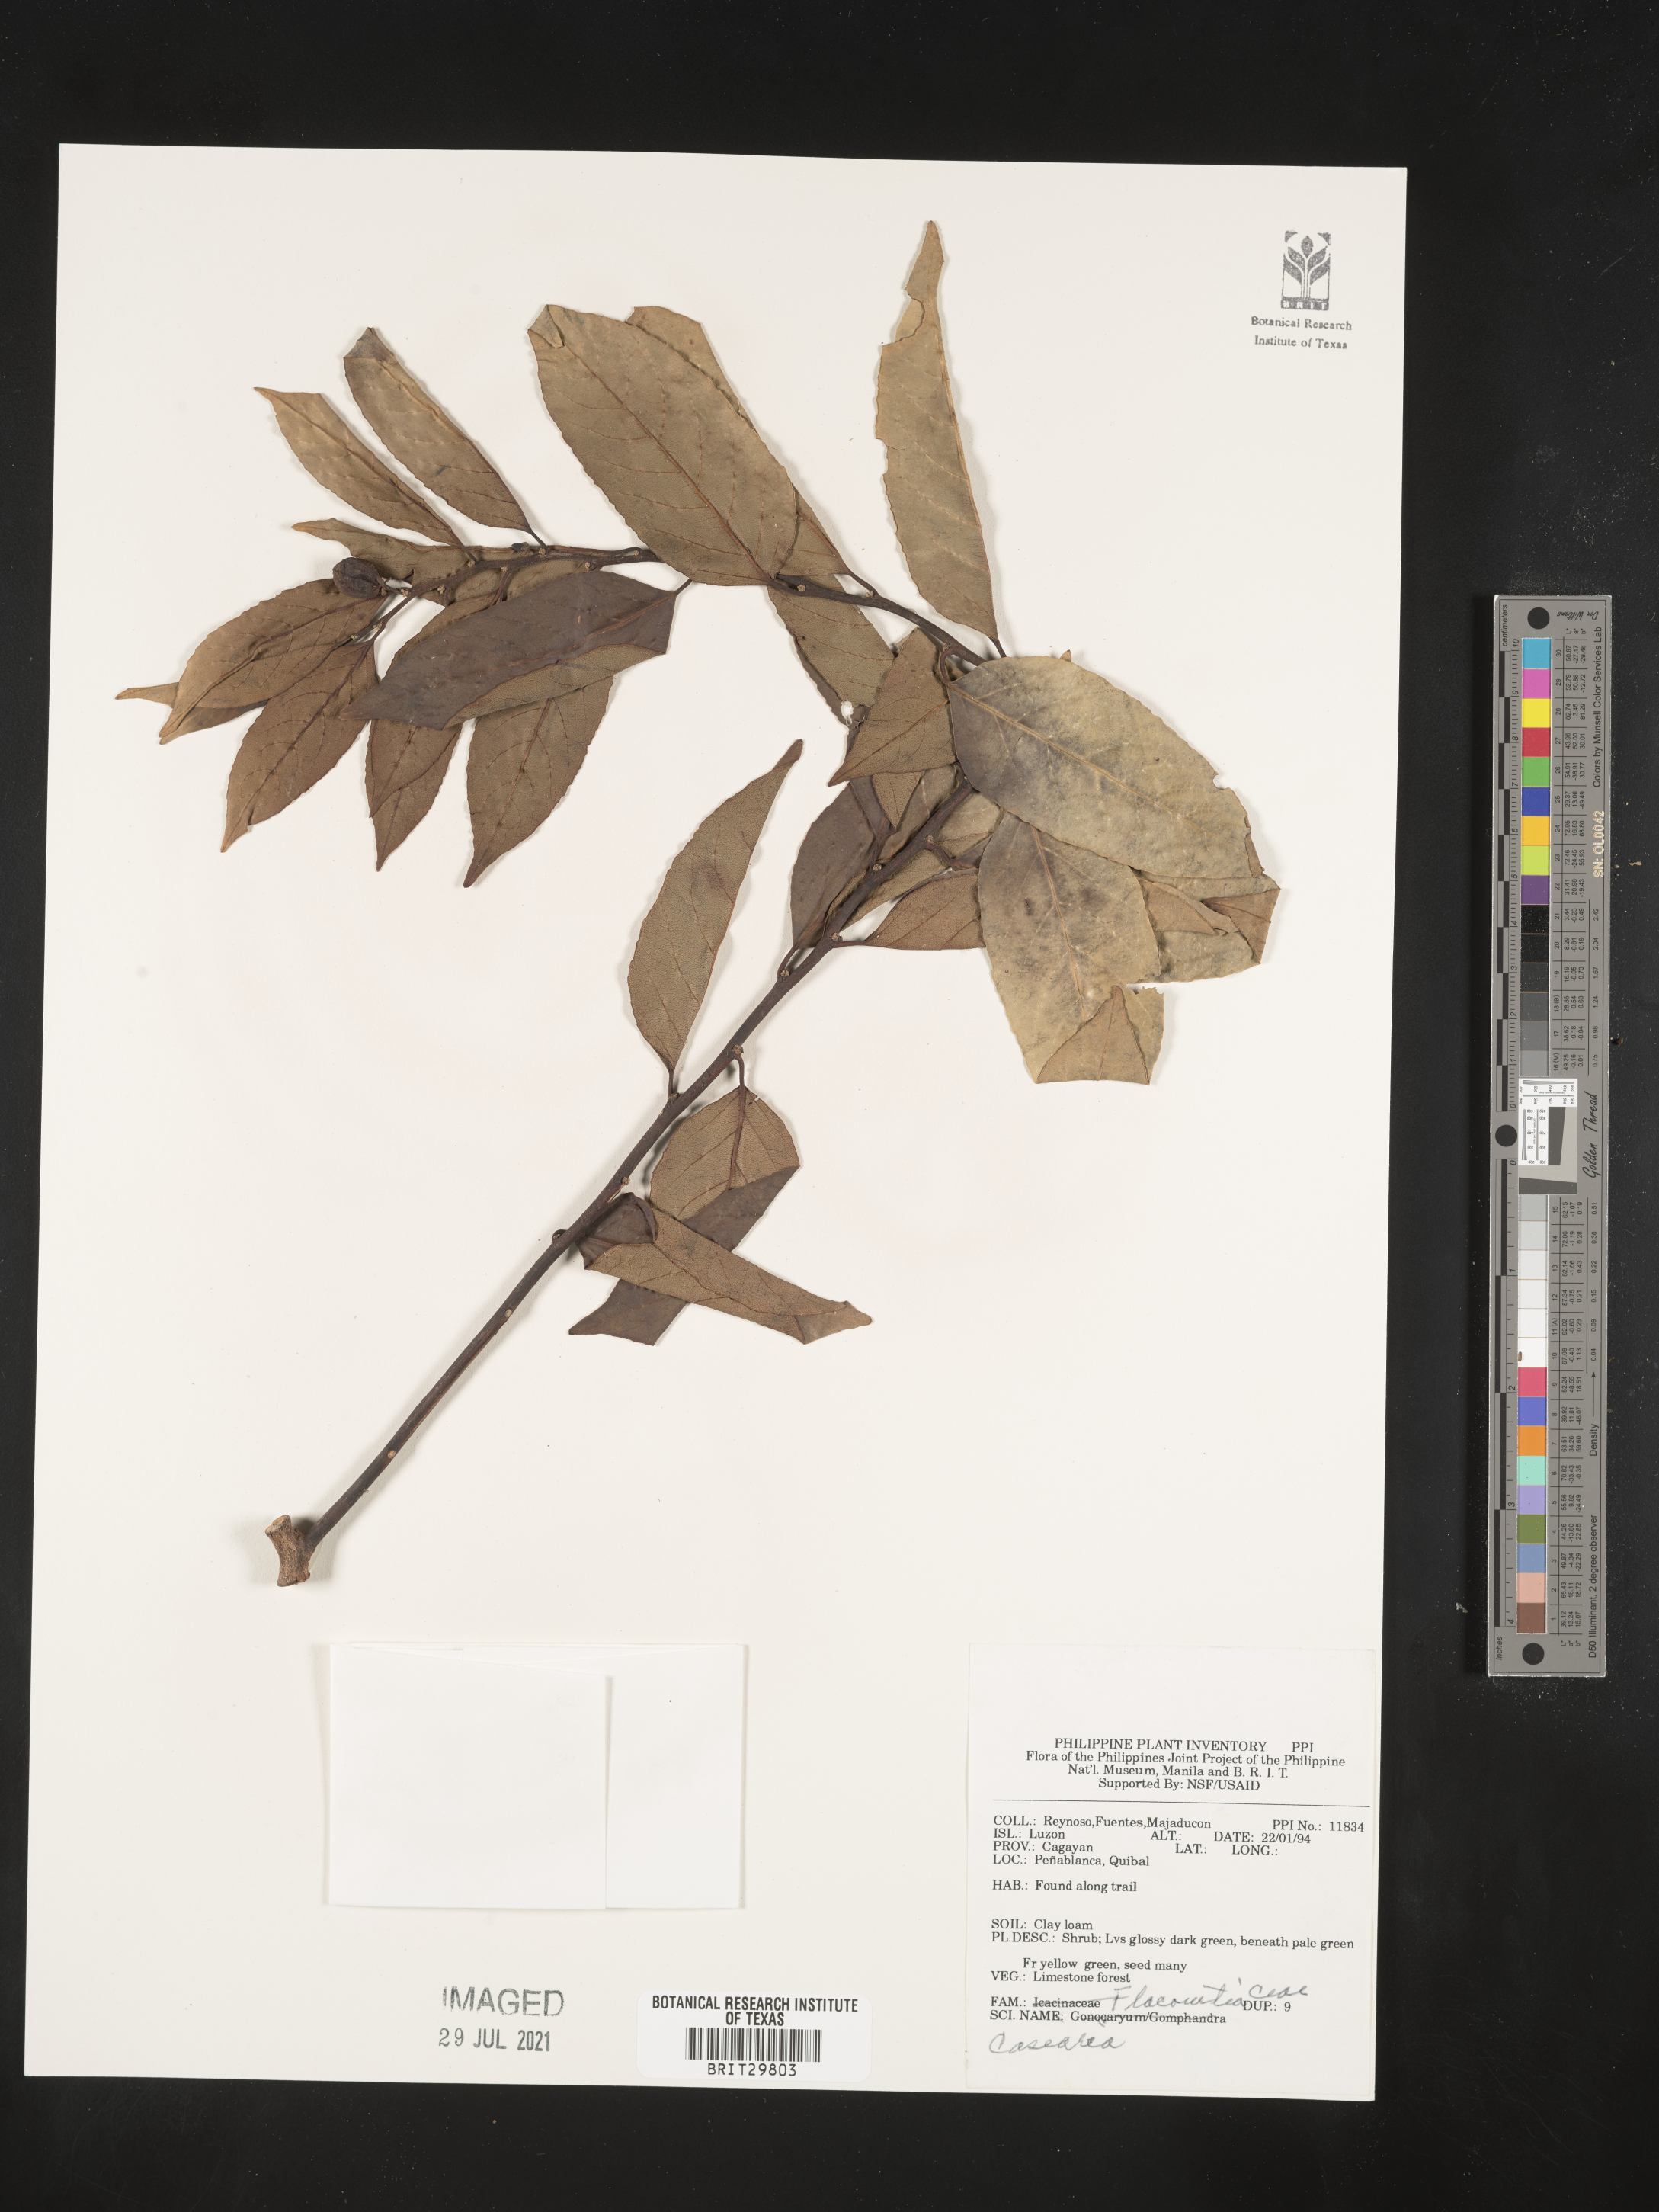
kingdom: Plantae
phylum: Tracheophyta
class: Magnoliopsida
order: Malpighiales
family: Salicaceae
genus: Casearia
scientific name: Casearia
